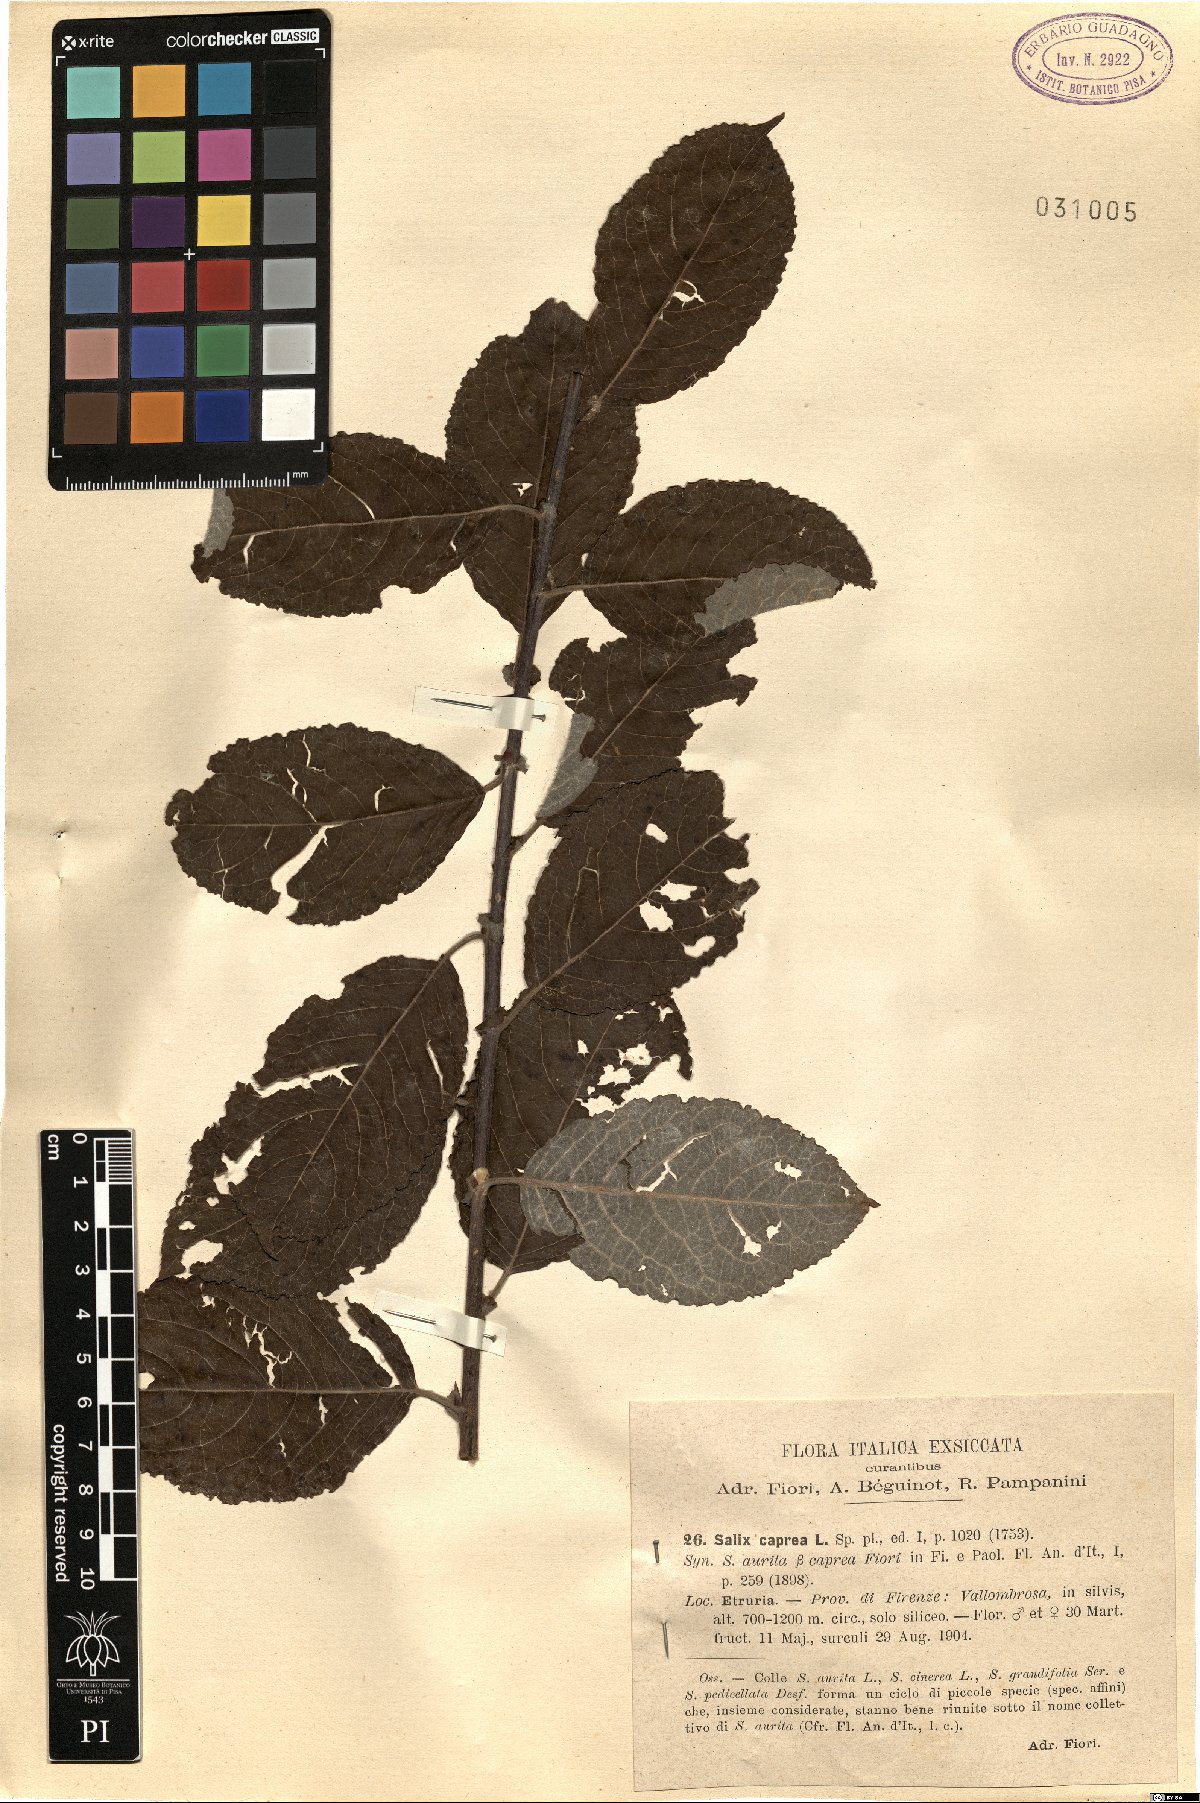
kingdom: Plantae
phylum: Tracheophyta
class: Magnoliopsida
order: Malpighiales
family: Salicaceae
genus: Salix
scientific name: Salix caprea
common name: Goat willow
